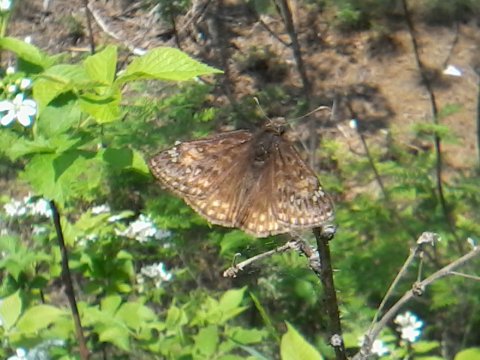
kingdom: Animalia
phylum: Arthropoda
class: Insecta
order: Lepidoptera
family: Hesperiidae
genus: Gesta
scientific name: Gesta
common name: Juvenal's Duskywing
